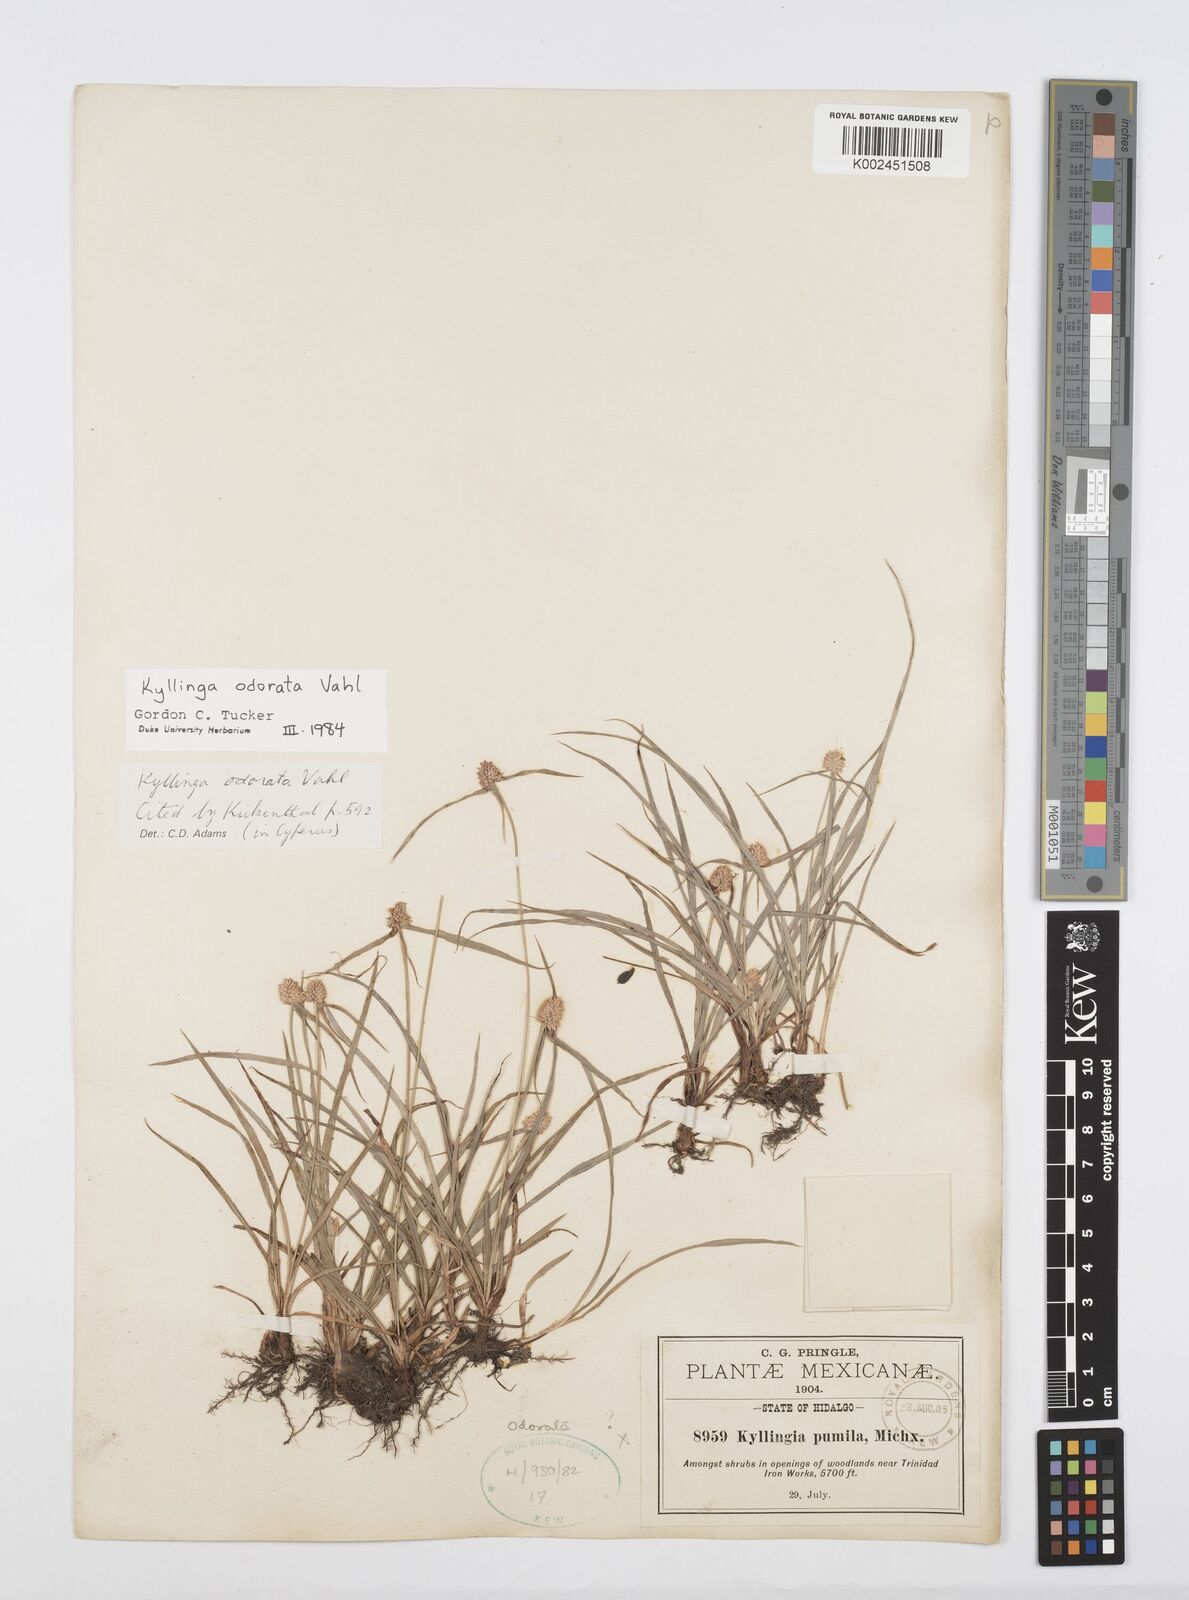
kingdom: Plantae
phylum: Tracheophyta
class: Liliopsida
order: Poales
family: Cyperaceae
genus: Cyperus
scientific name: Cyperus
